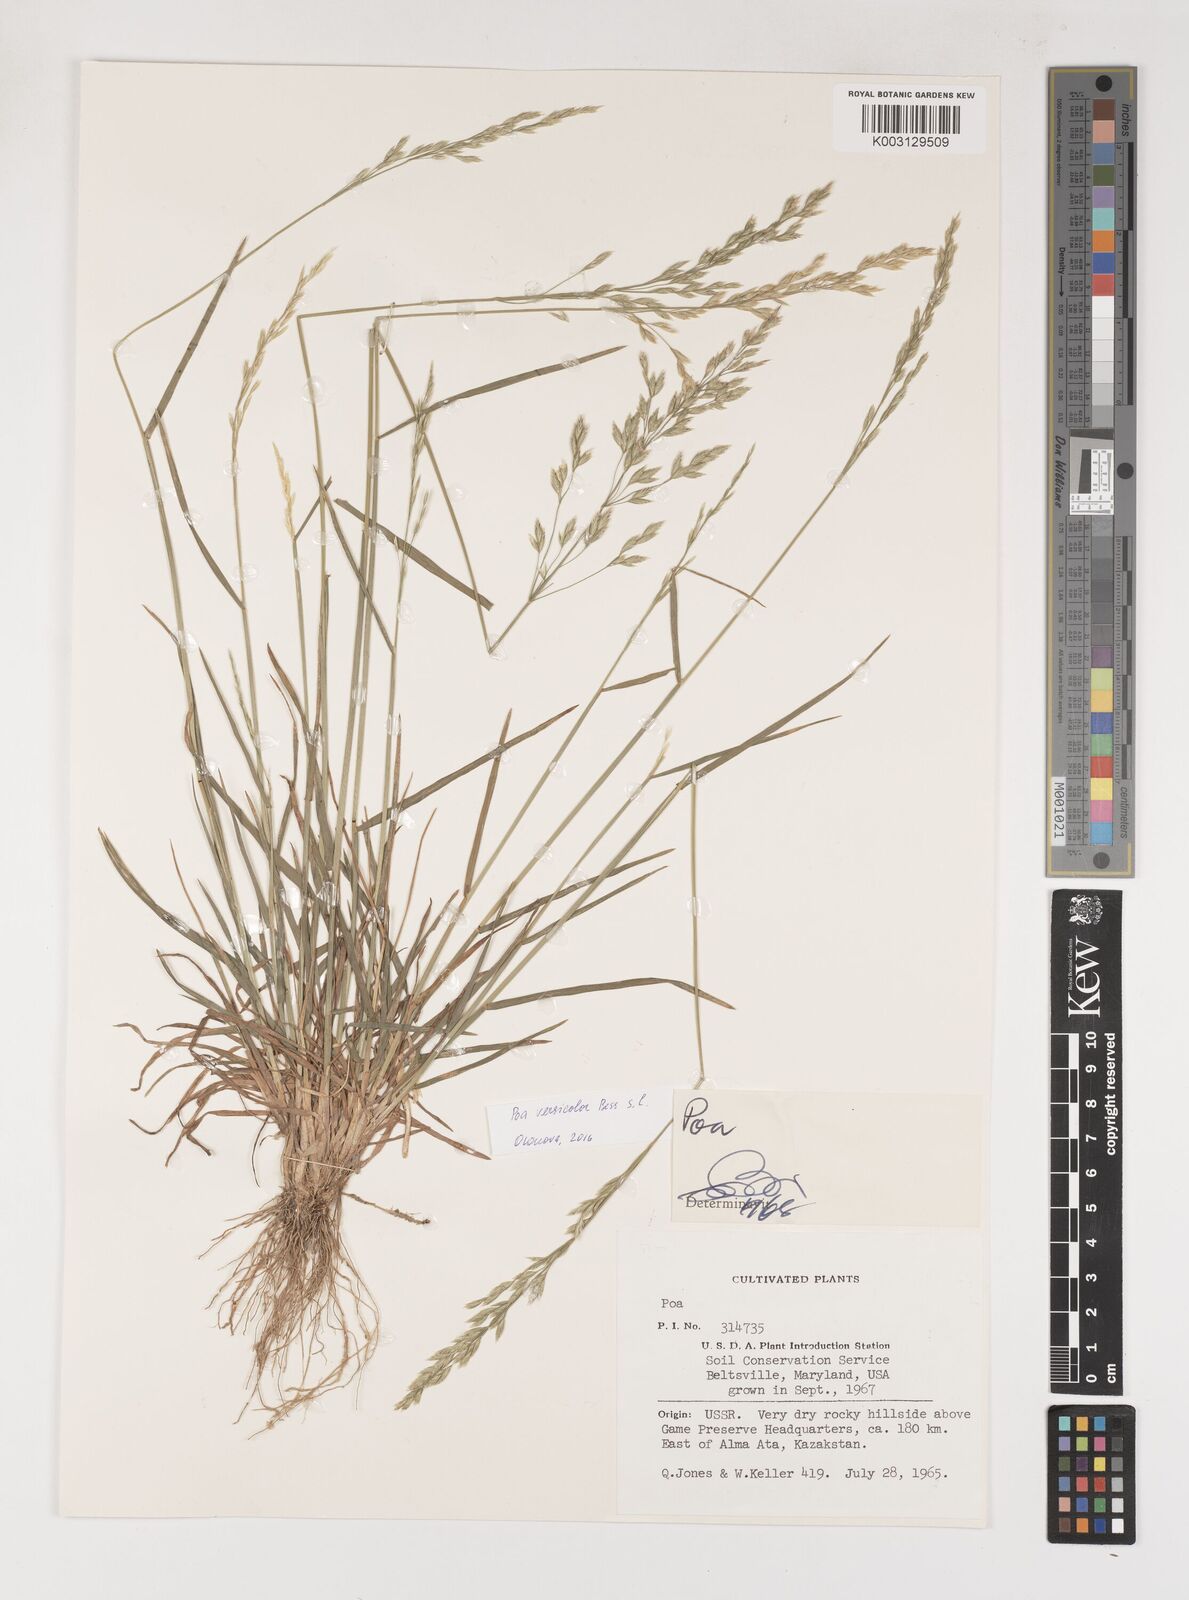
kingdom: Plantae
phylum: Tracheophyta
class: Liliopsida
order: Poales
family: Poaceae
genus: Poa
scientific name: Poa
